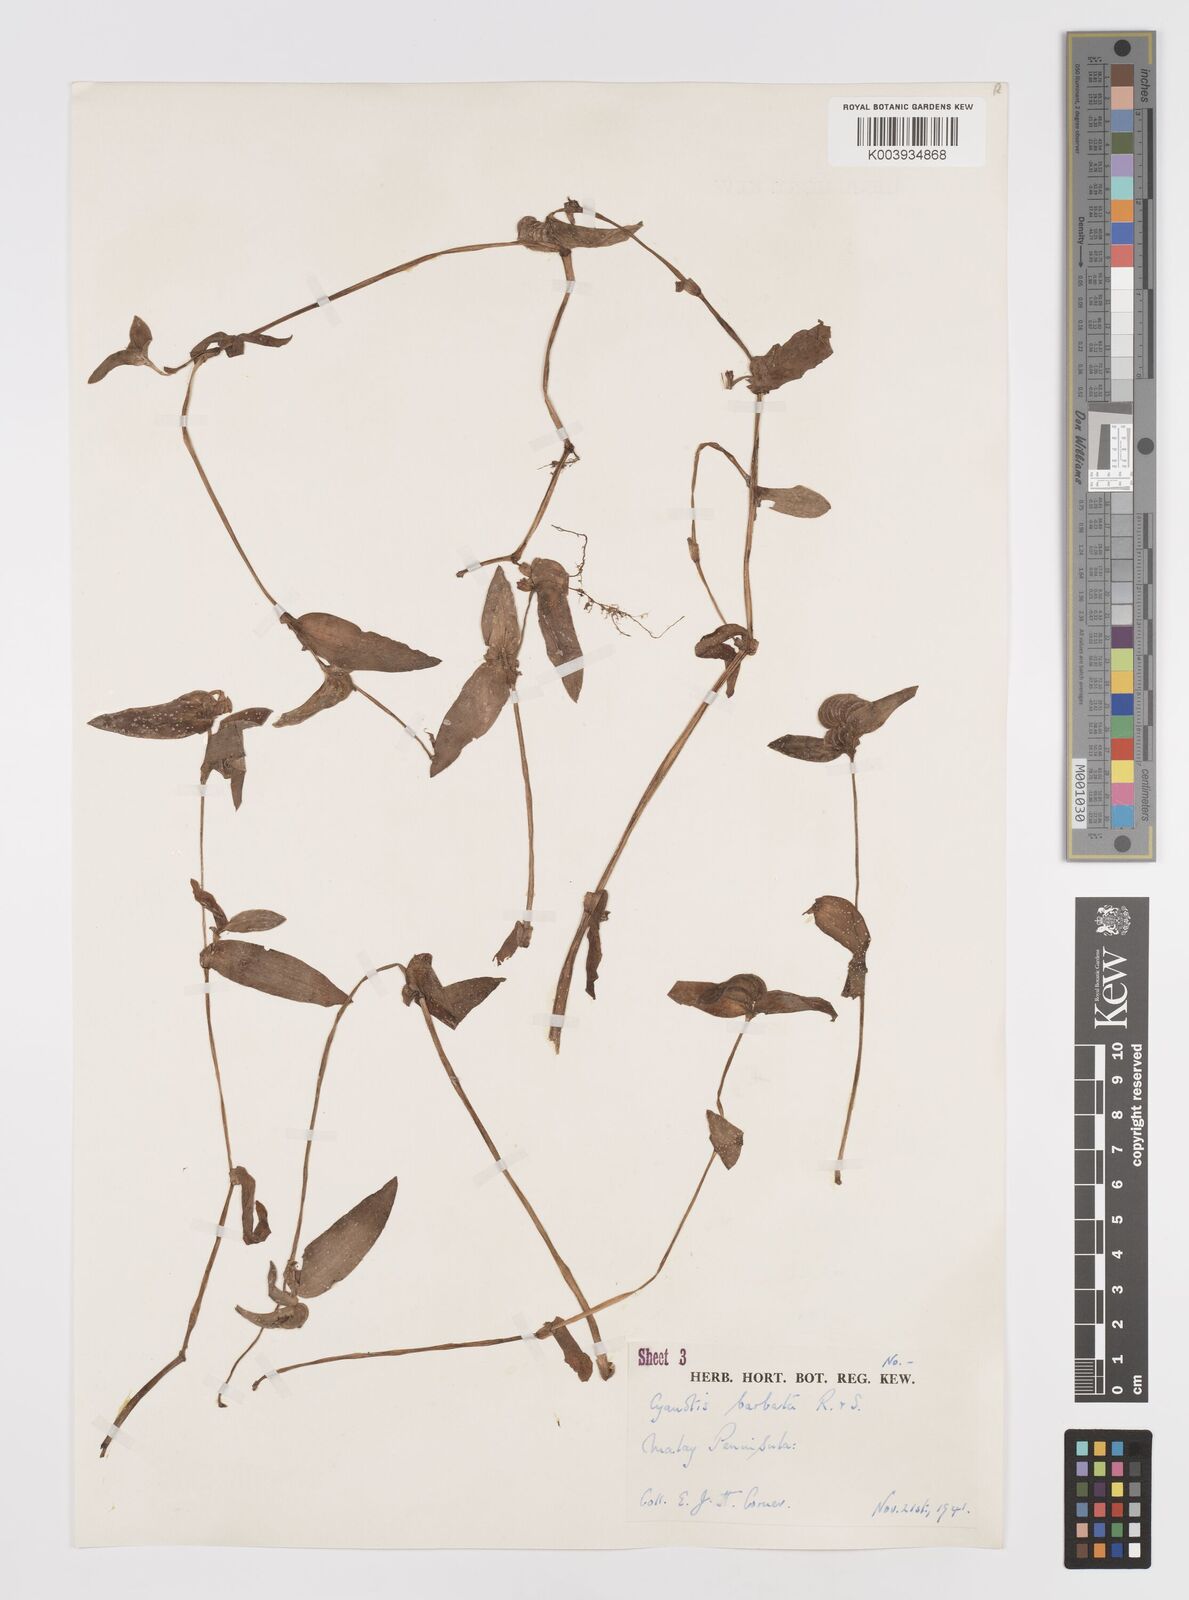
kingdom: Plantae
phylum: Tracheophyta
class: Liliopsida
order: Commelinales
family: Commelinaceae
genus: Cyanotis
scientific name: Cyanotis cristata
